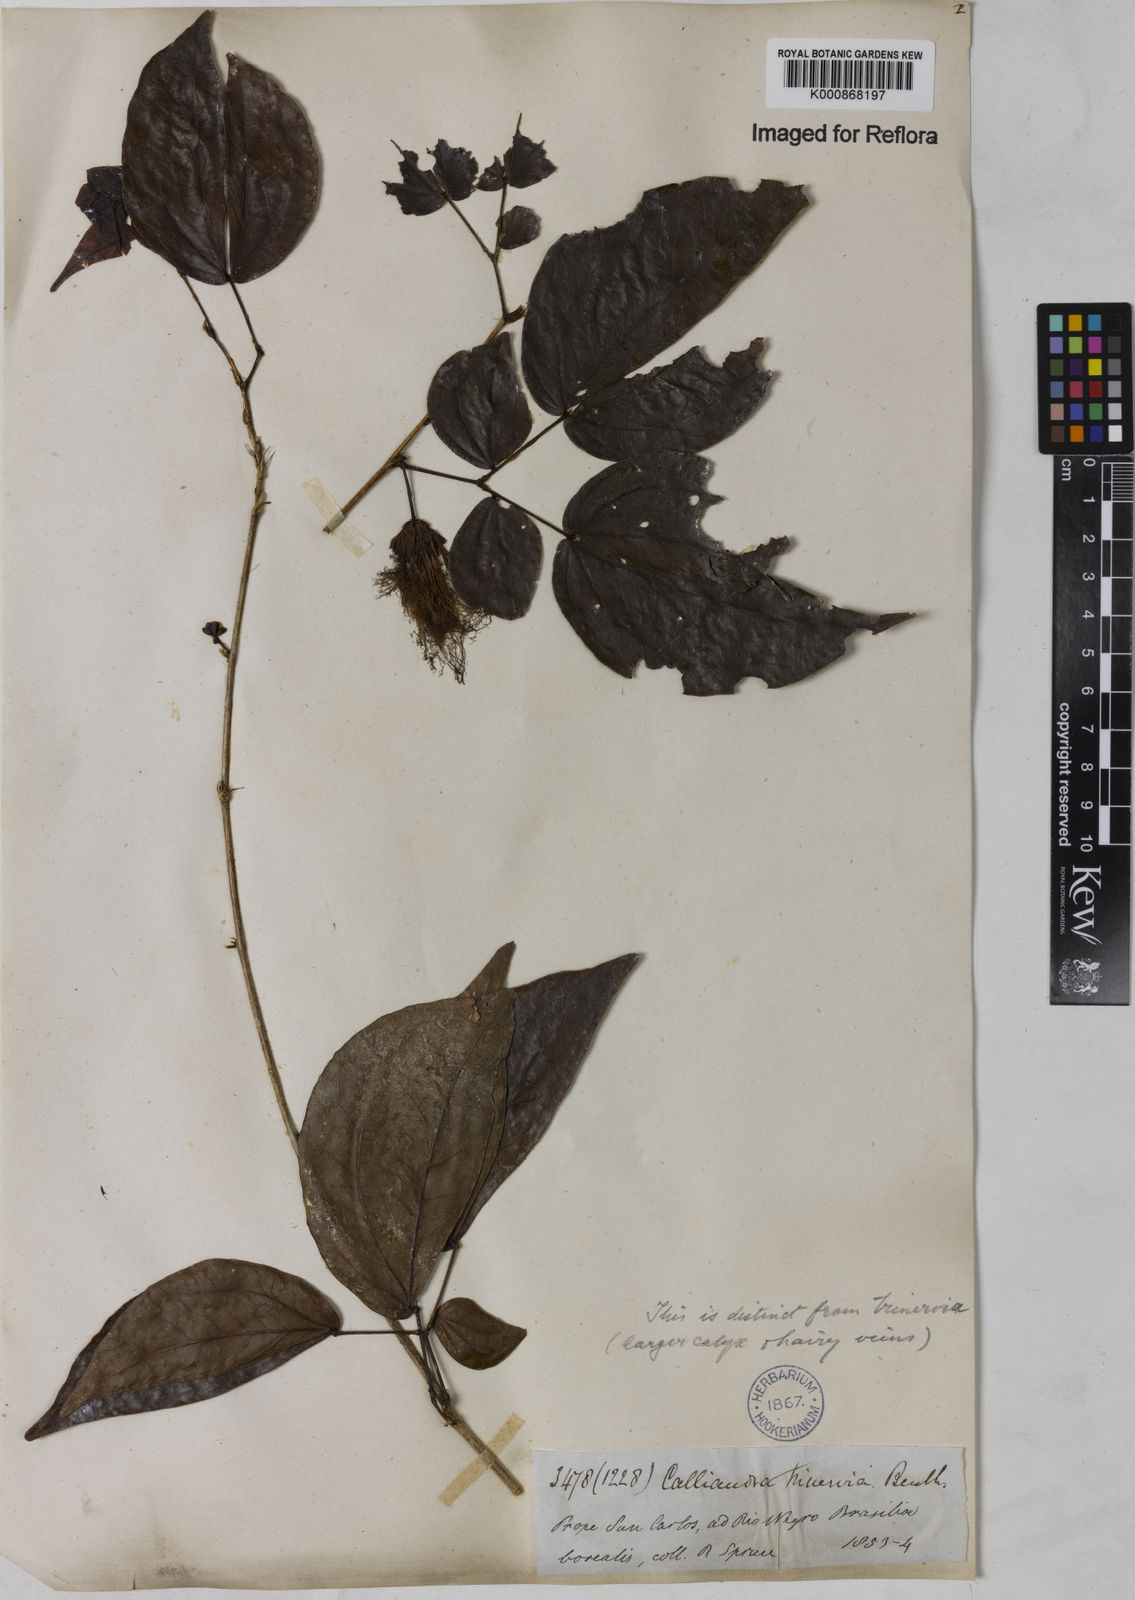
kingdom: Plantae
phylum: Tracheophyta
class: Magnoliopsida
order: Fabales
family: Fabaceae
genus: Calliandra
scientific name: Calliandra trinervia
